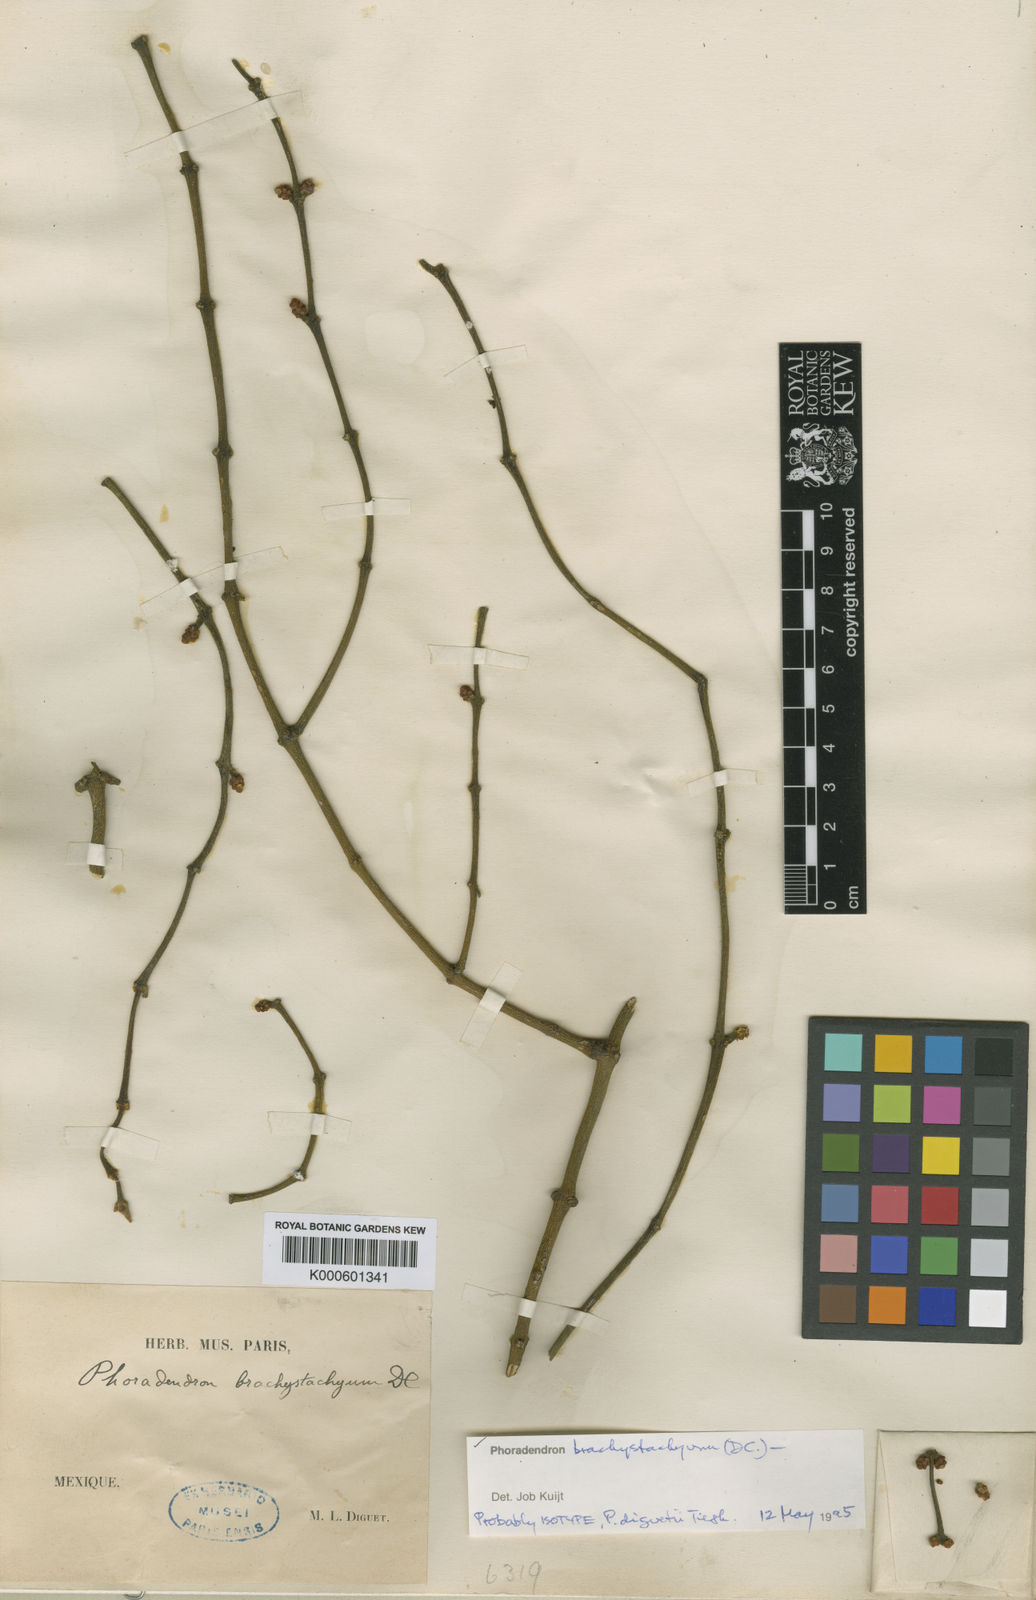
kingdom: Plantae
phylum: Tracheophyta
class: Magnoliopsida
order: Santalales
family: Viscaceae
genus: Phoradendron
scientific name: Phoradendron brachystachyum
